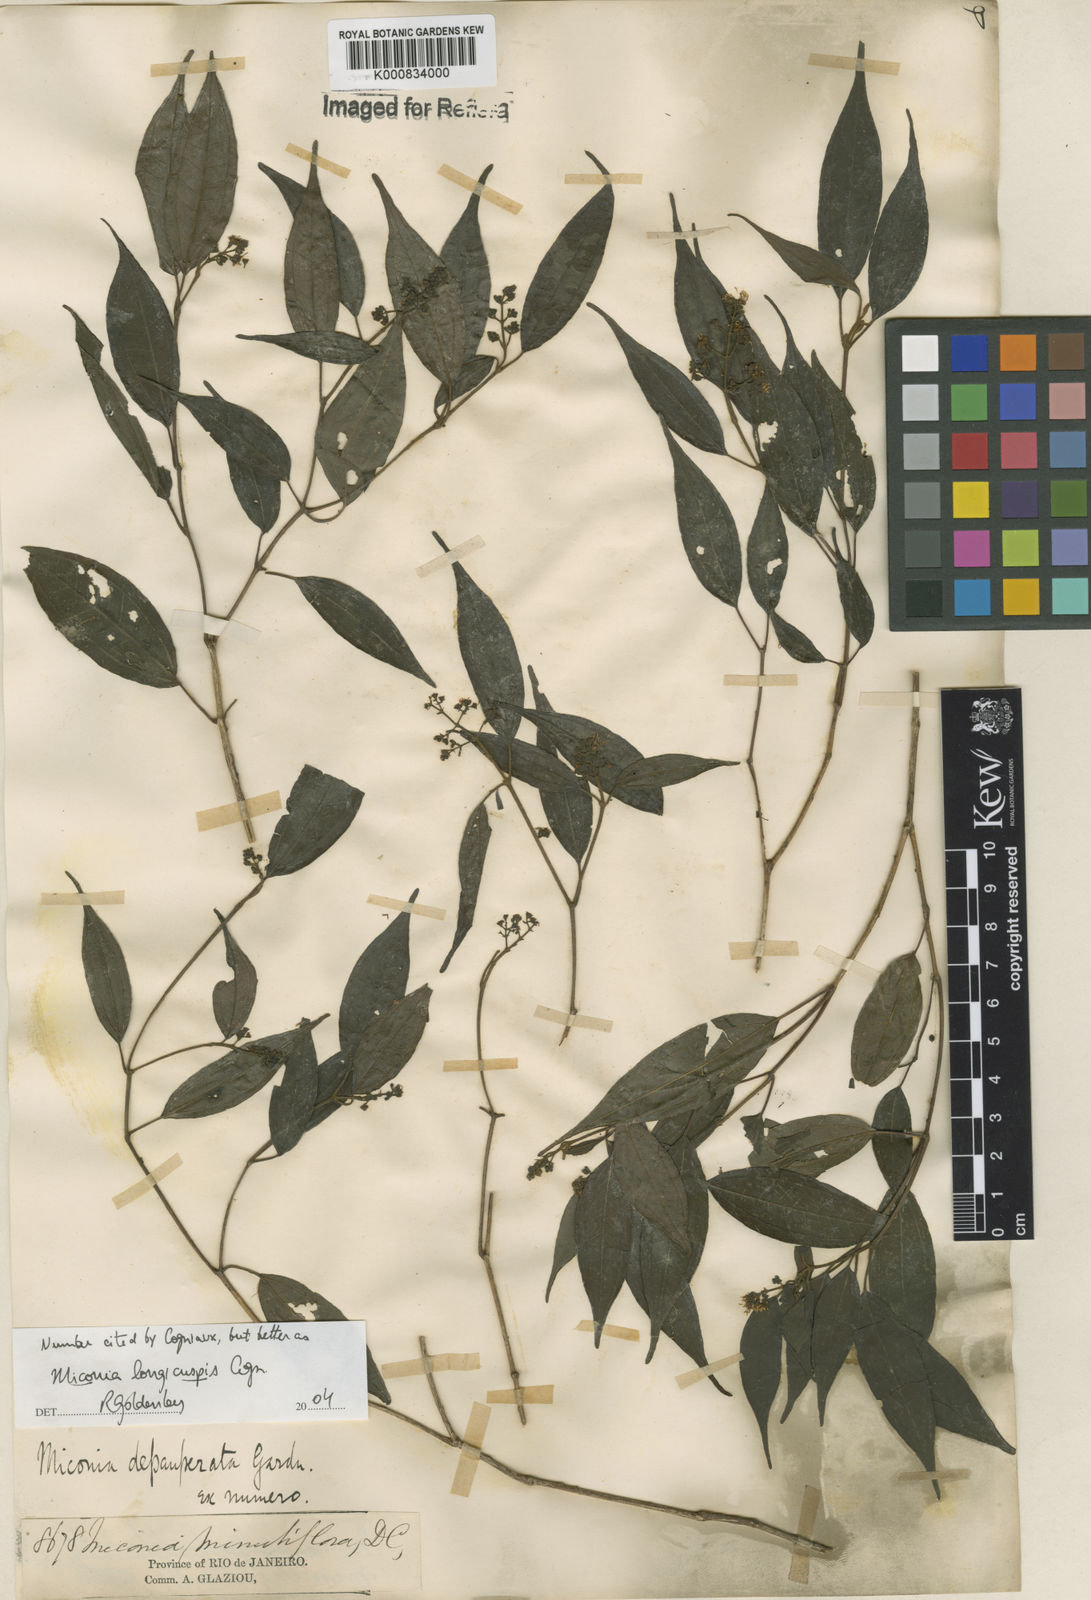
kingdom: Plantae
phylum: Tracheophyta
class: Magnoliopsida
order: Myrtales
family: Melastomataceae
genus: Miconia
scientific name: Miconia depauperata
